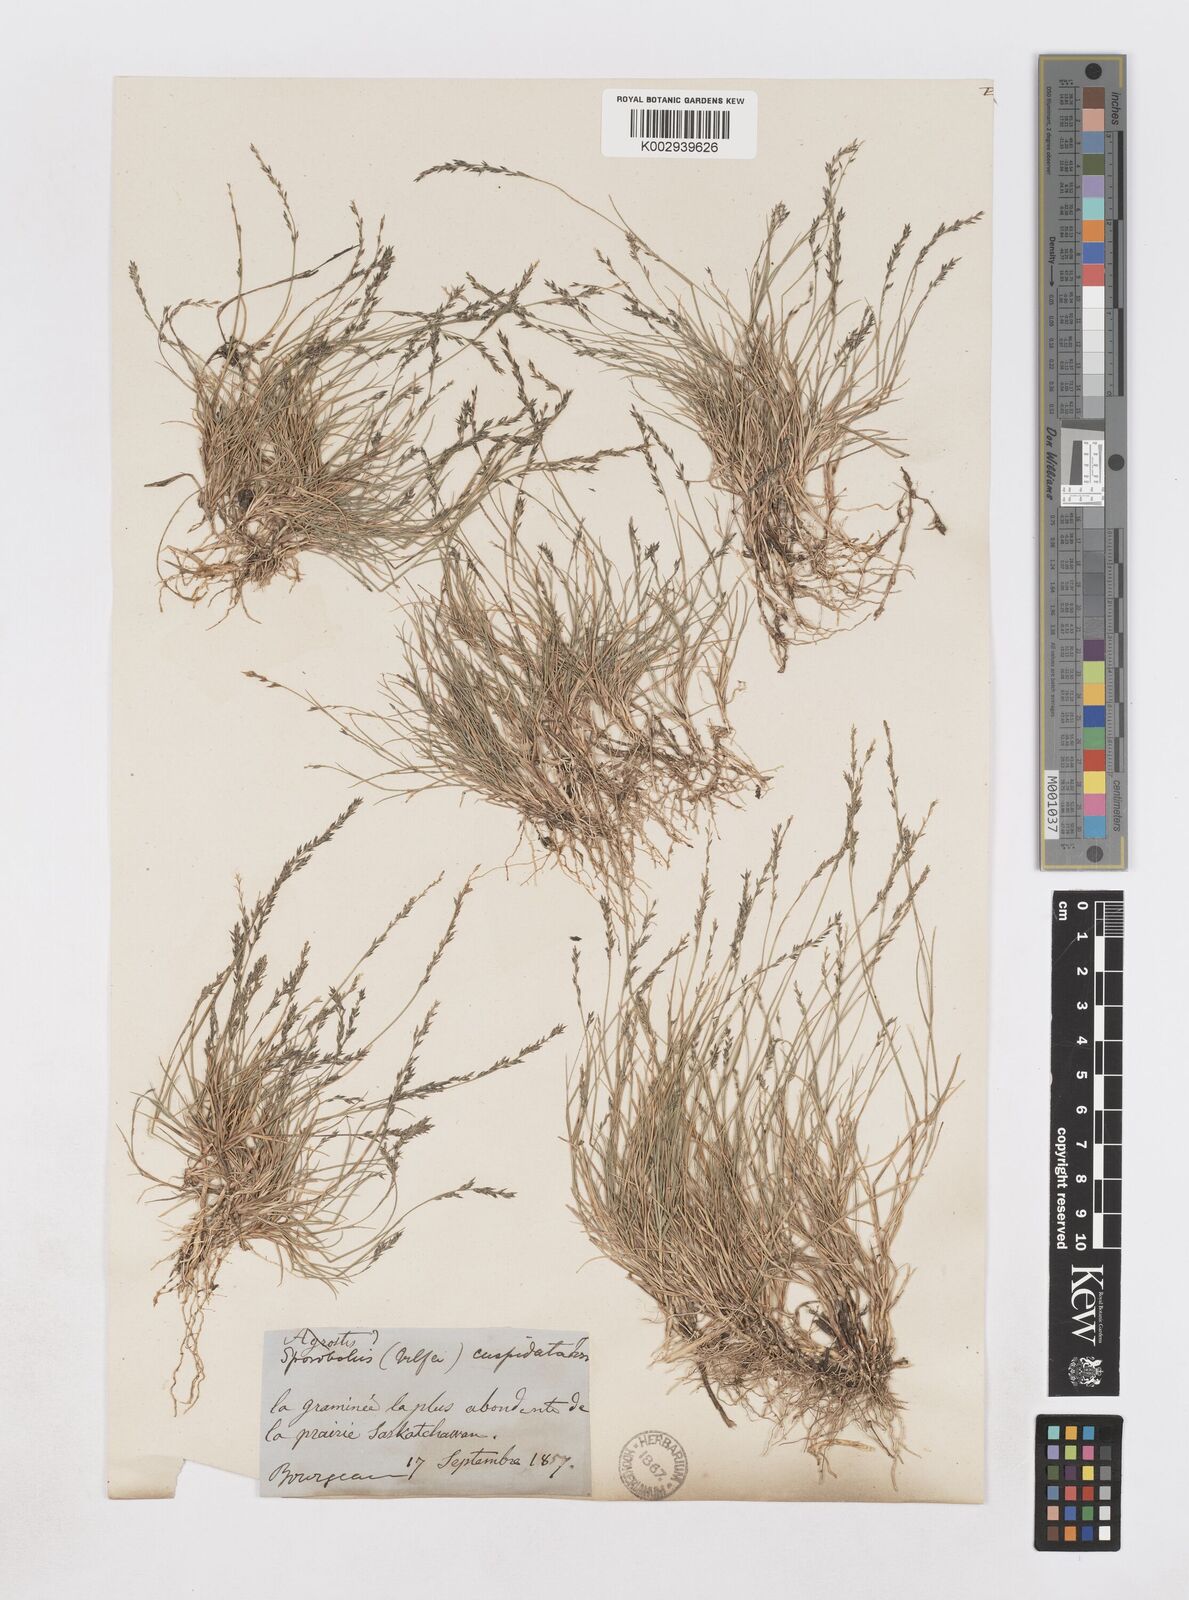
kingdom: Plantae
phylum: Tracheophyta
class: Liliopsida
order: Poales
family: Poaceae
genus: Muhlenbergia
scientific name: Muhlenbergia cuspidata
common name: Plains muhly
